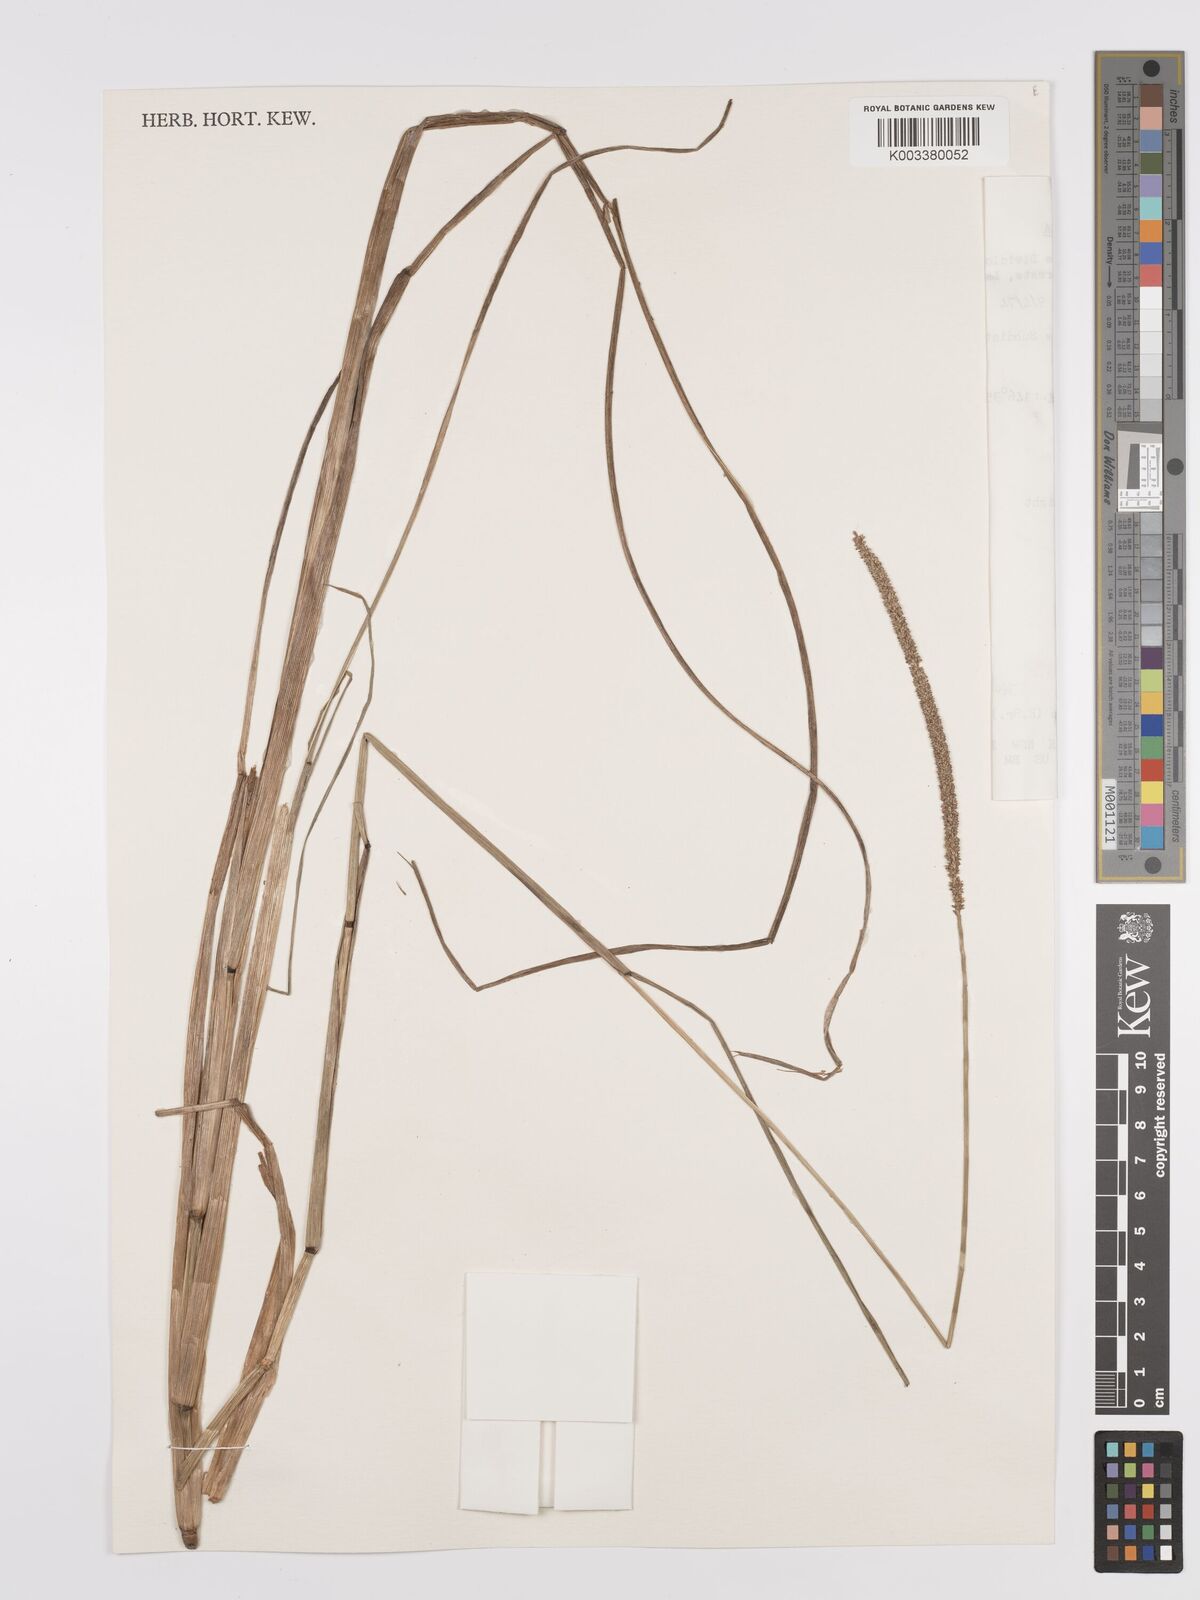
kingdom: Plantae
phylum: Tracheophyta
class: Liliopsida
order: Poales
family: Poaceae
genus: Sacciolepis
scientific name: Sacciolepis myosuroides
